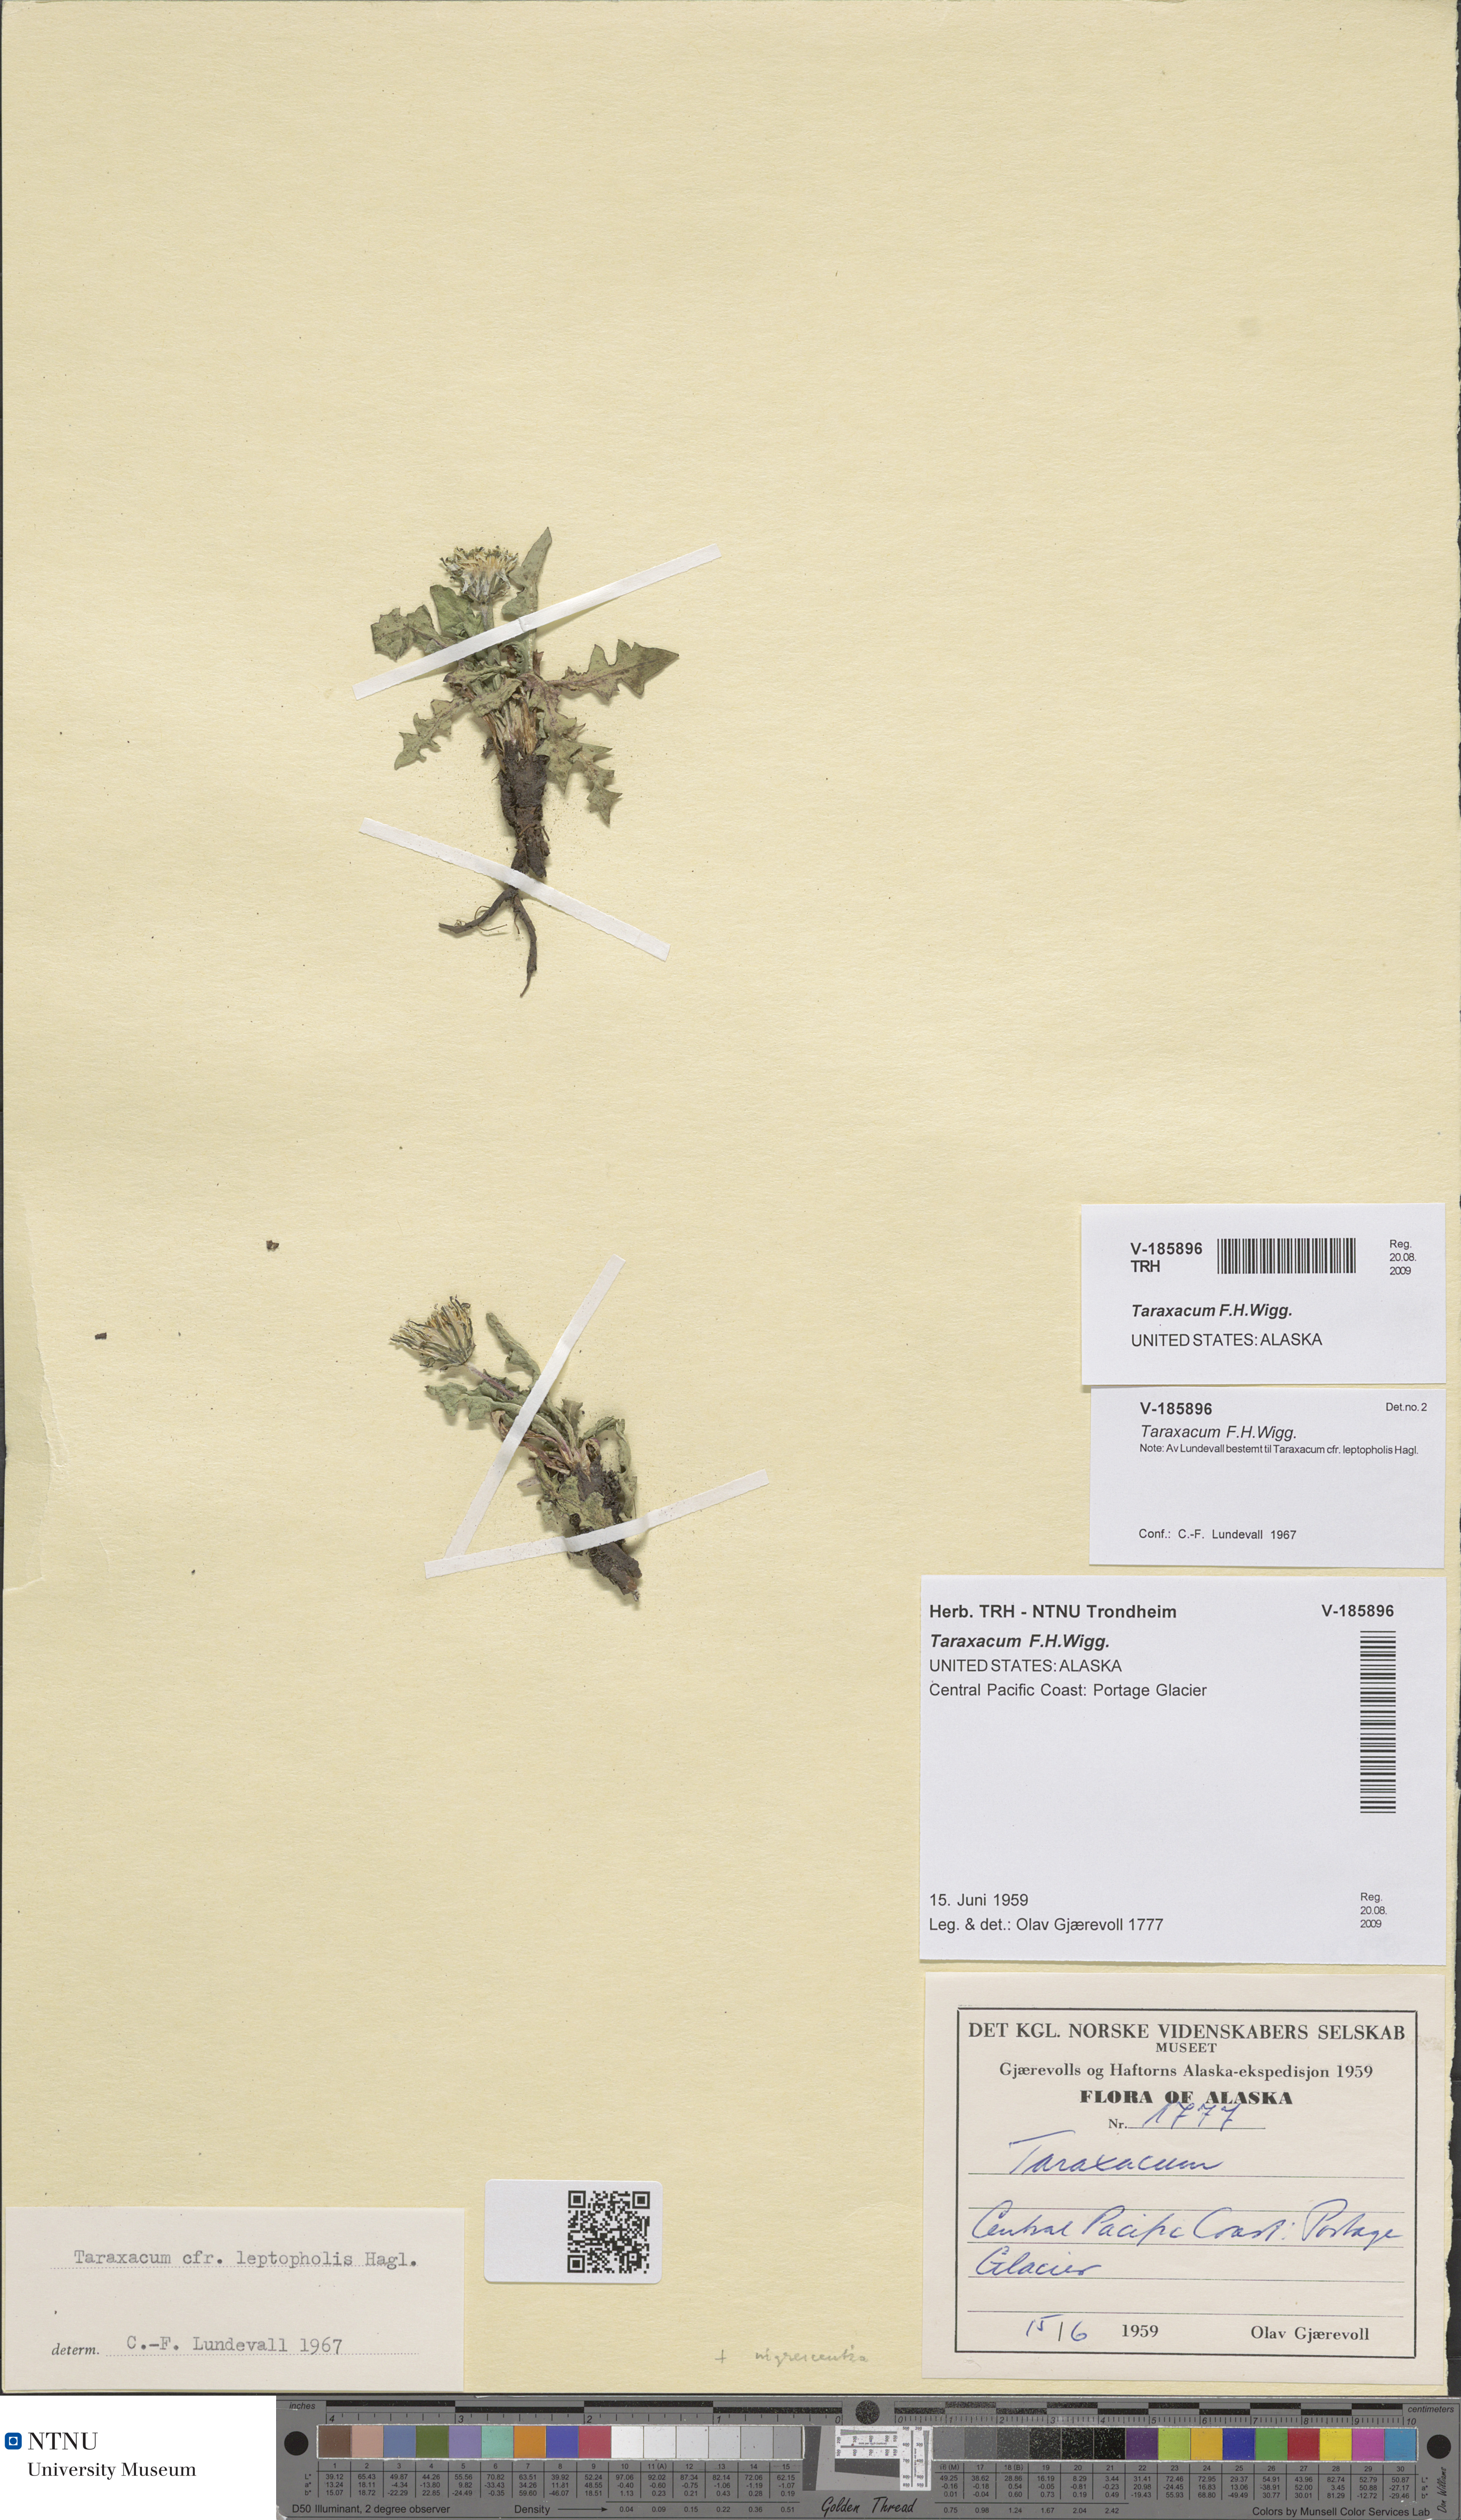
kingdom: Plantae
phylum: Tracheophyta
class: Magnoliopsida
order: Asterales
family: Asteraceae
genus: Taraxacum
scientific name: Taraxacum
